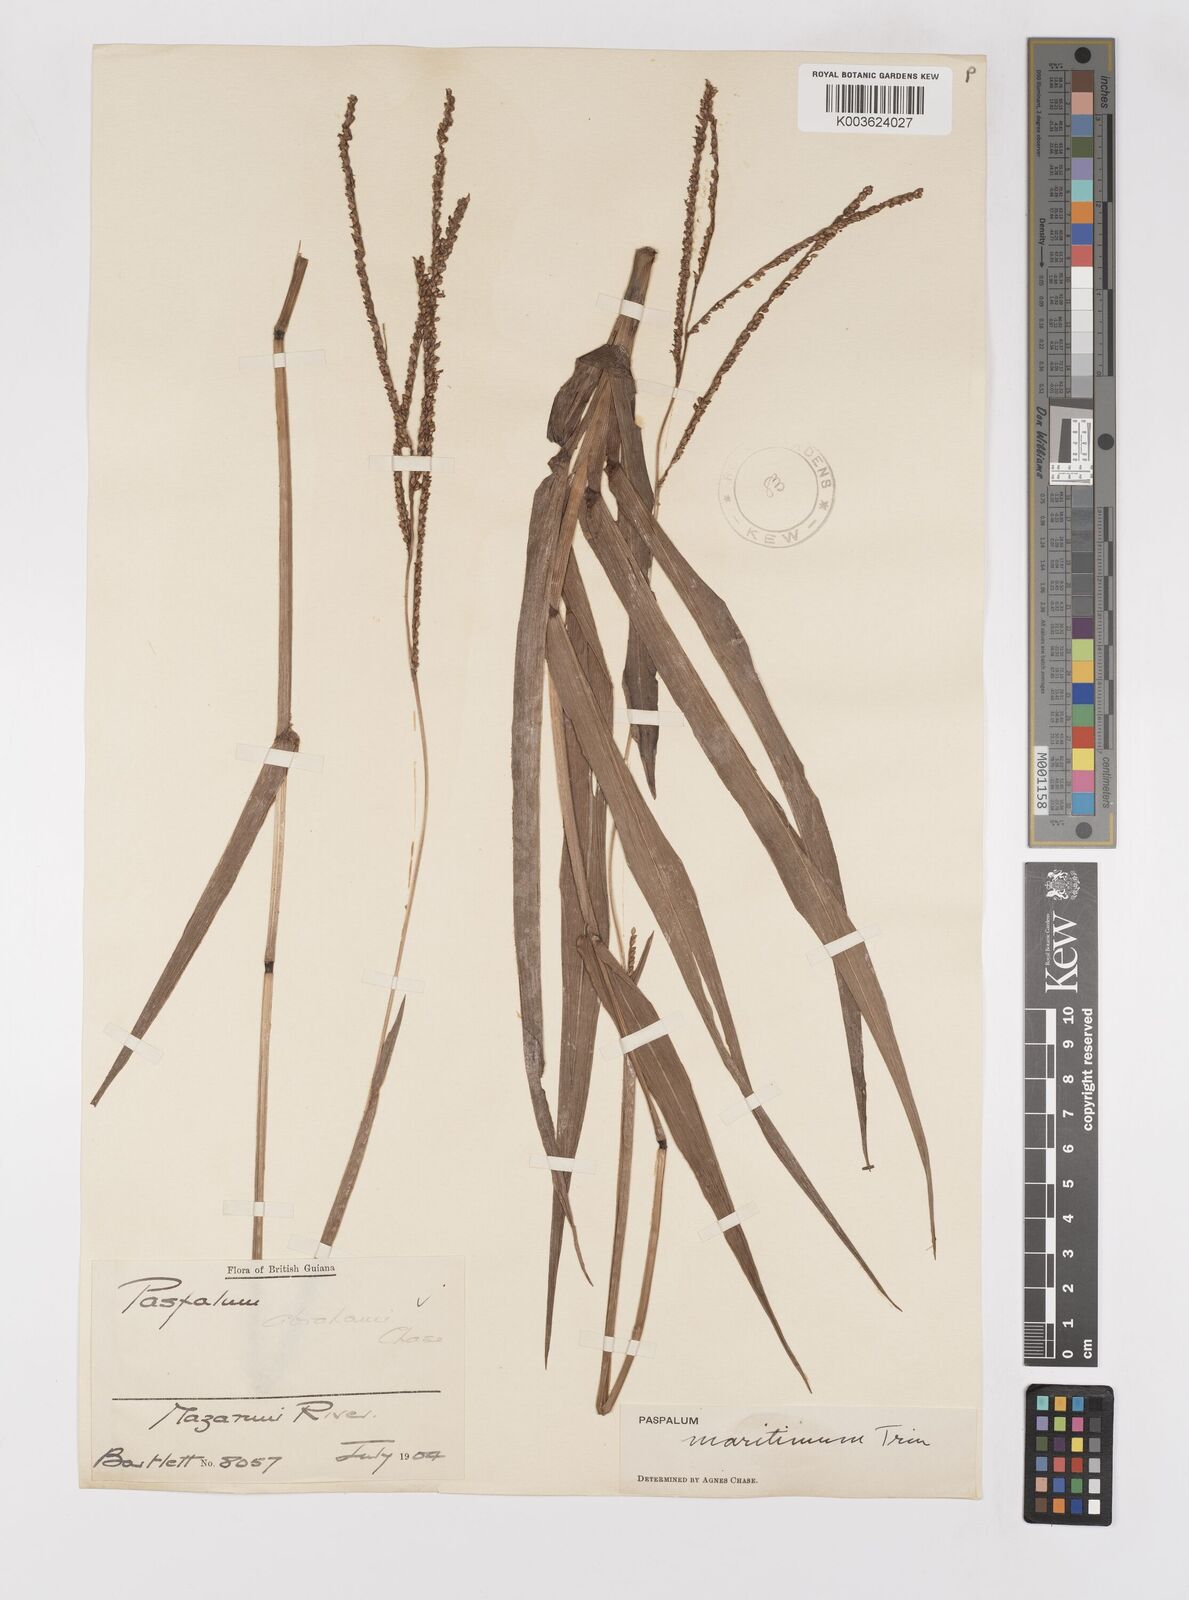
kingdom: Plantae
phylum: Tracheophyta
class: Liliopsida
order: Poales
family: Poaceae
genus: Paspalum
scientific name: Paspalum maritimum
